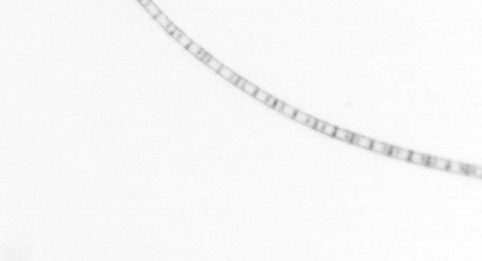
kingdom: Chromista
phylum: Ochrophyta
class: Bacillariophyceae
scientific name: Bacillariophyceae
